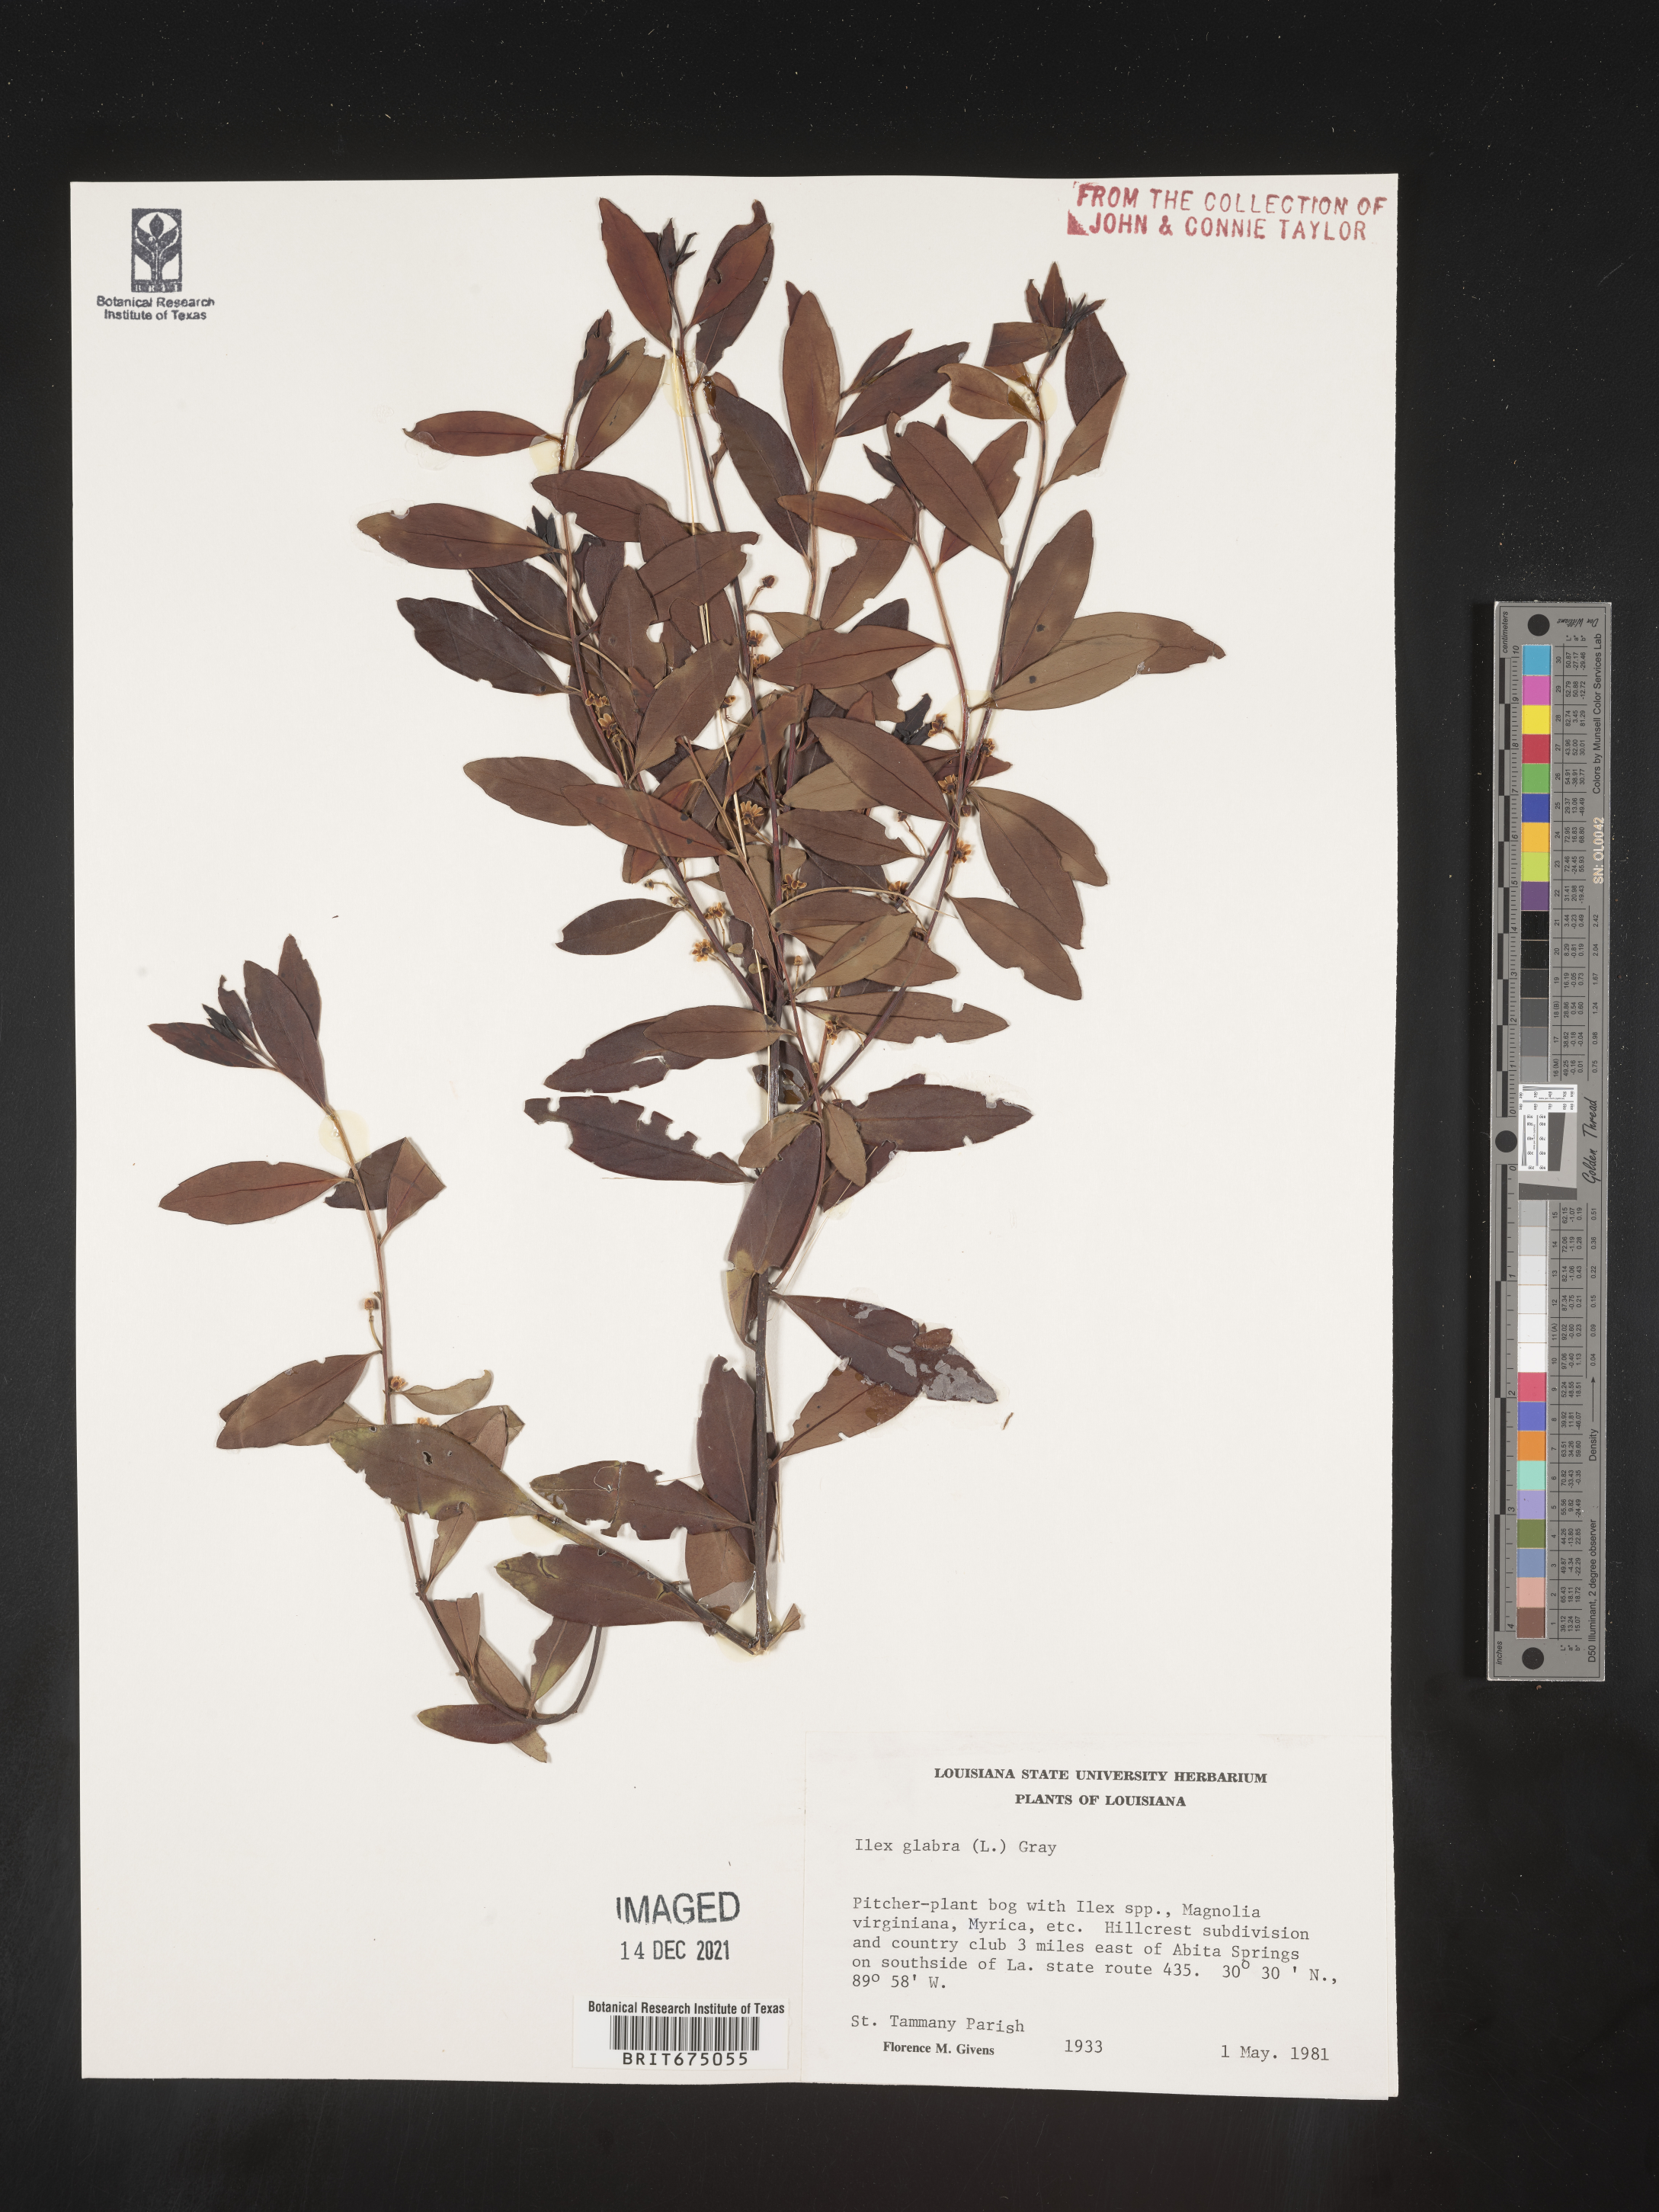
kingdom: Plantae
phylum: Tracheophyta
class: Magnoliopsida
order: Aquifoliales
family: Aquifoliaceae
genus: Ilex
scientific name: Ilex glabra
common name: Bitter gallberry
